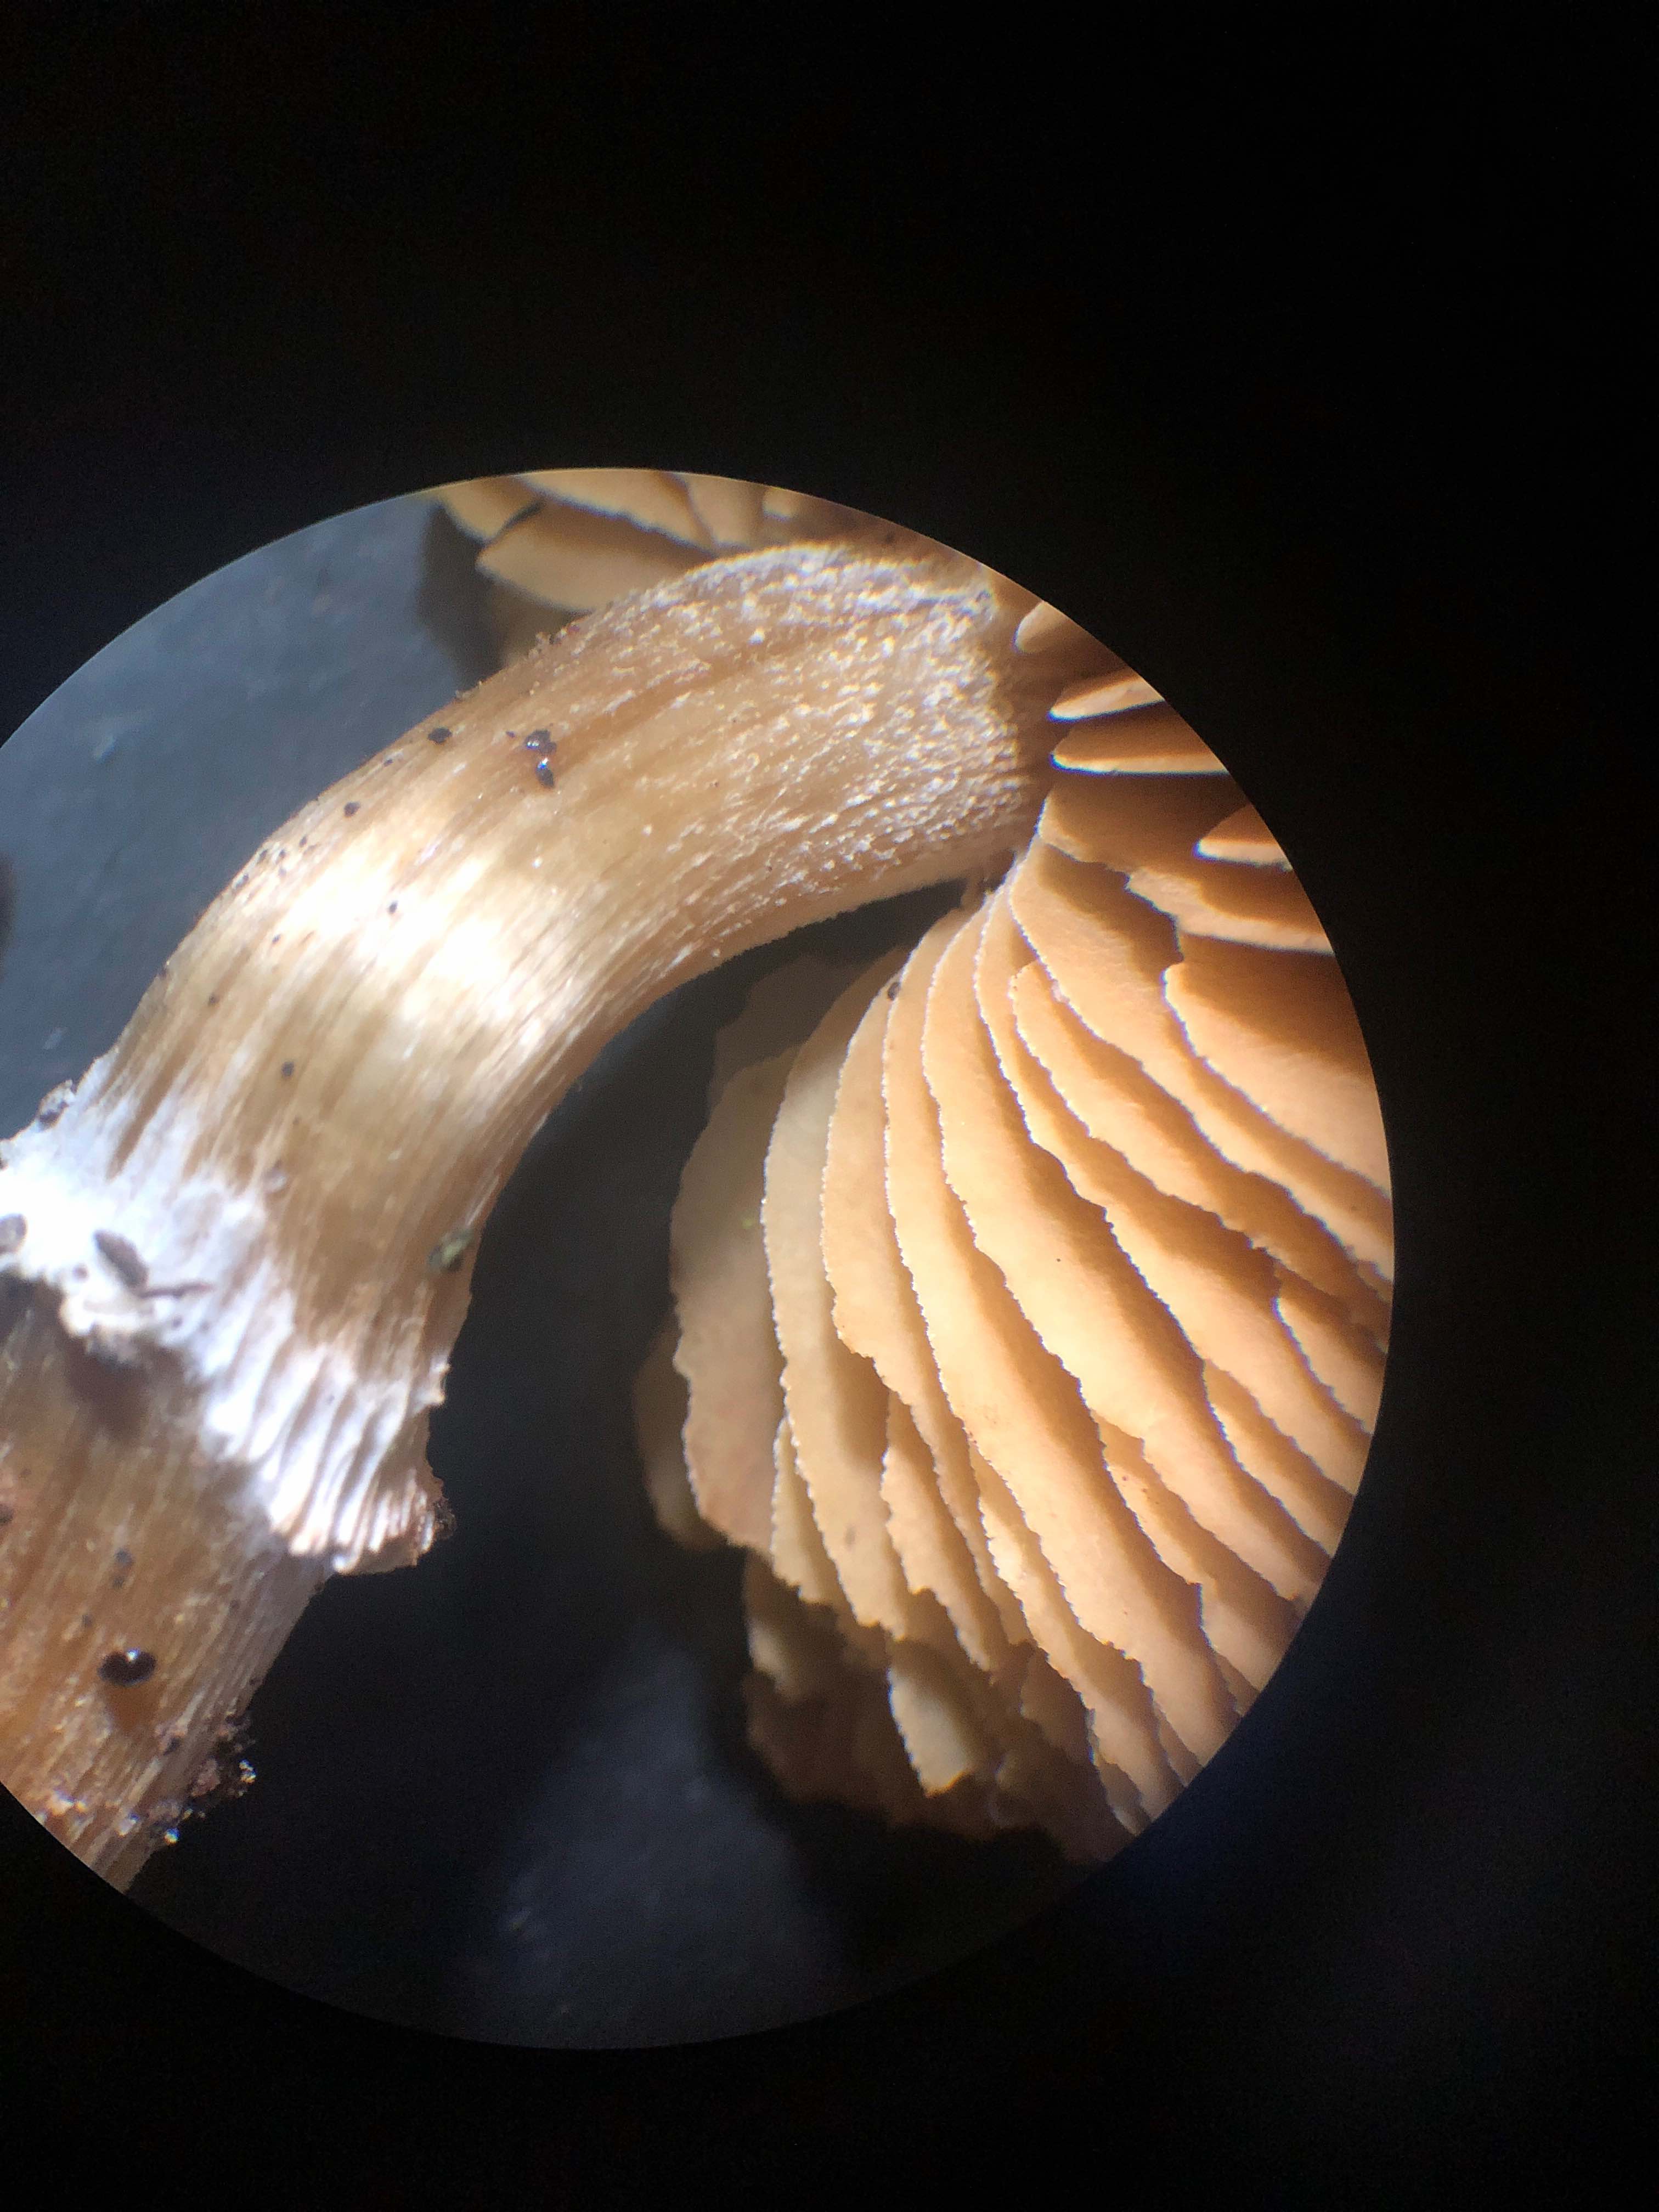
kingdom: Fungi
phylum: Basidiomycota
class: Agaricomycetes
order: Agaricales
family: Bolbitiaceae
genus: Conocybe
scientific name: Conocybe aporos
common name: tidlig dansehat
